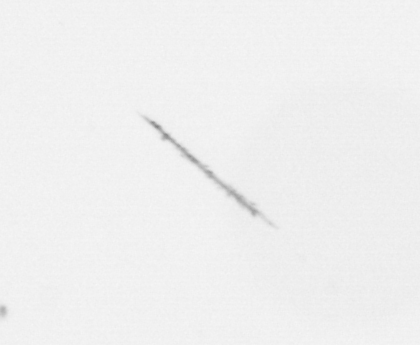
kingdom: Chromista
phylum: Ochrophyta
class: Bacillariophyceae
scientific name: Bacillariophyceae
